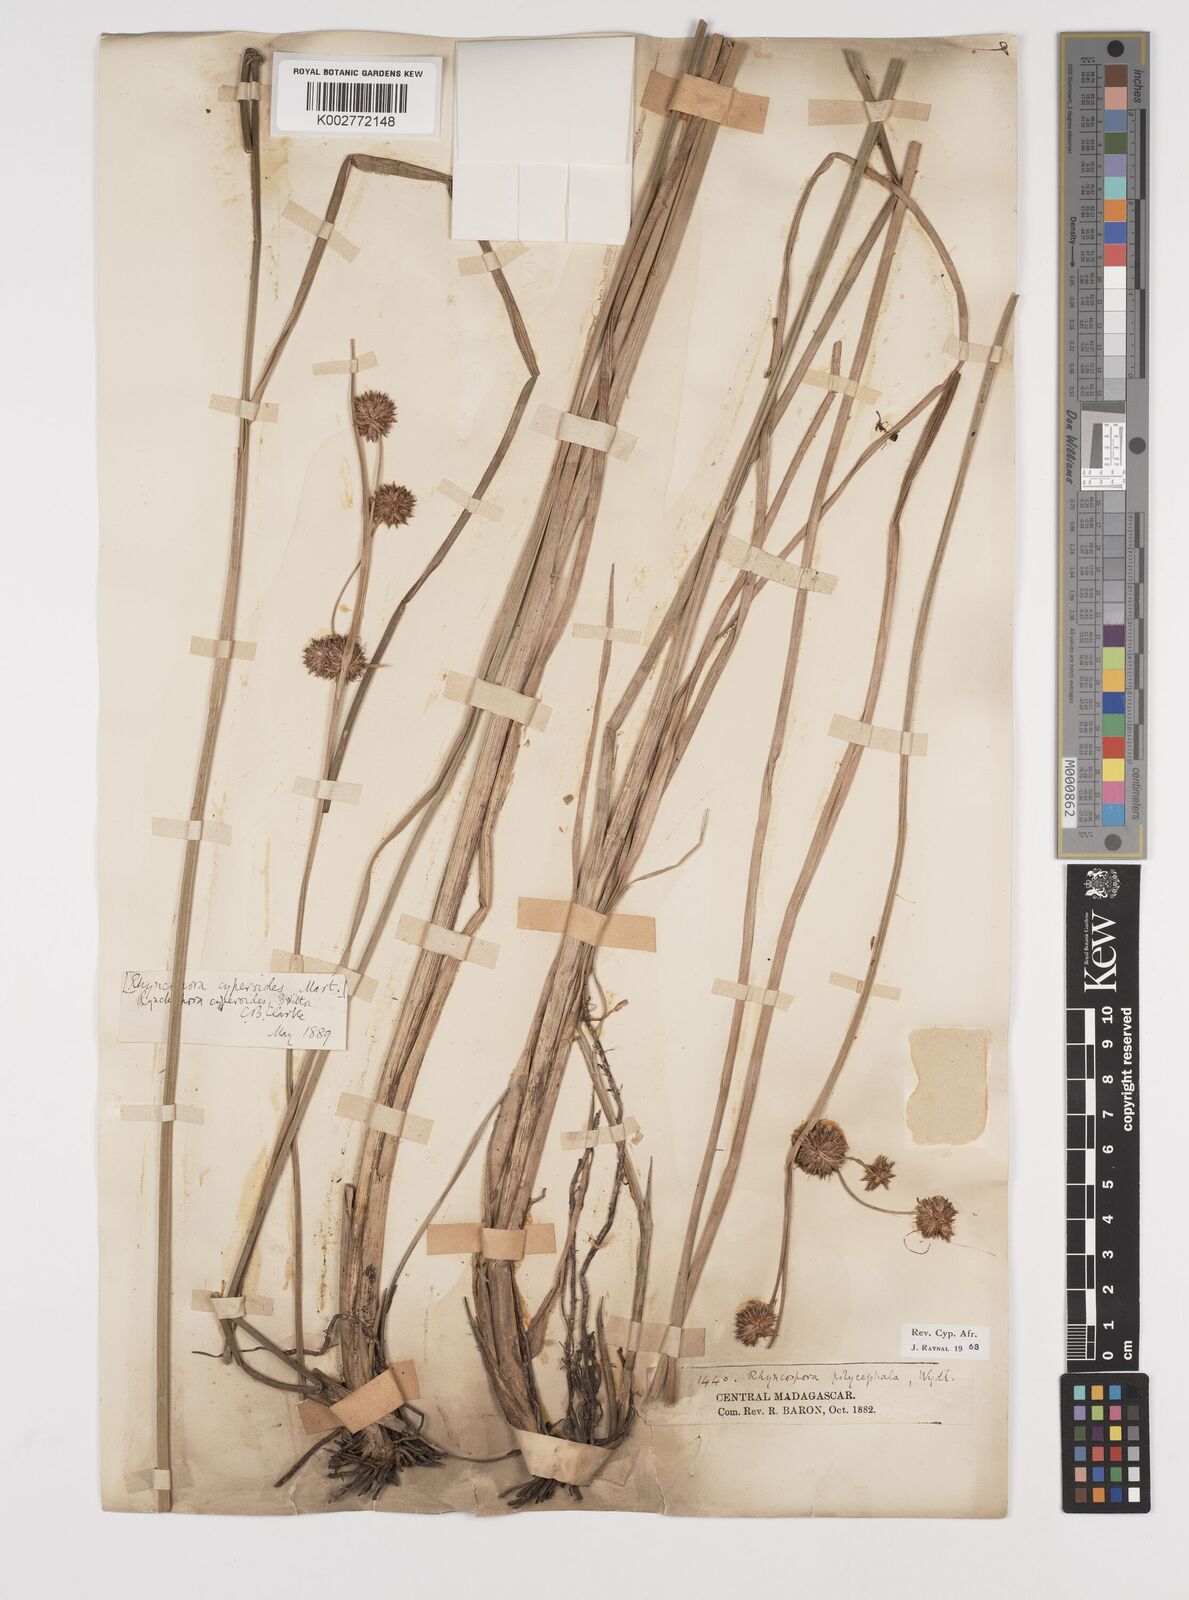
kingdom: Plantae
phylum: Tracheophyta
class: Liliopsida
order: Poales
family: Cyperaceae
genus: Rhynchospora
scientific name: Rhynchospora holoschoenoides
